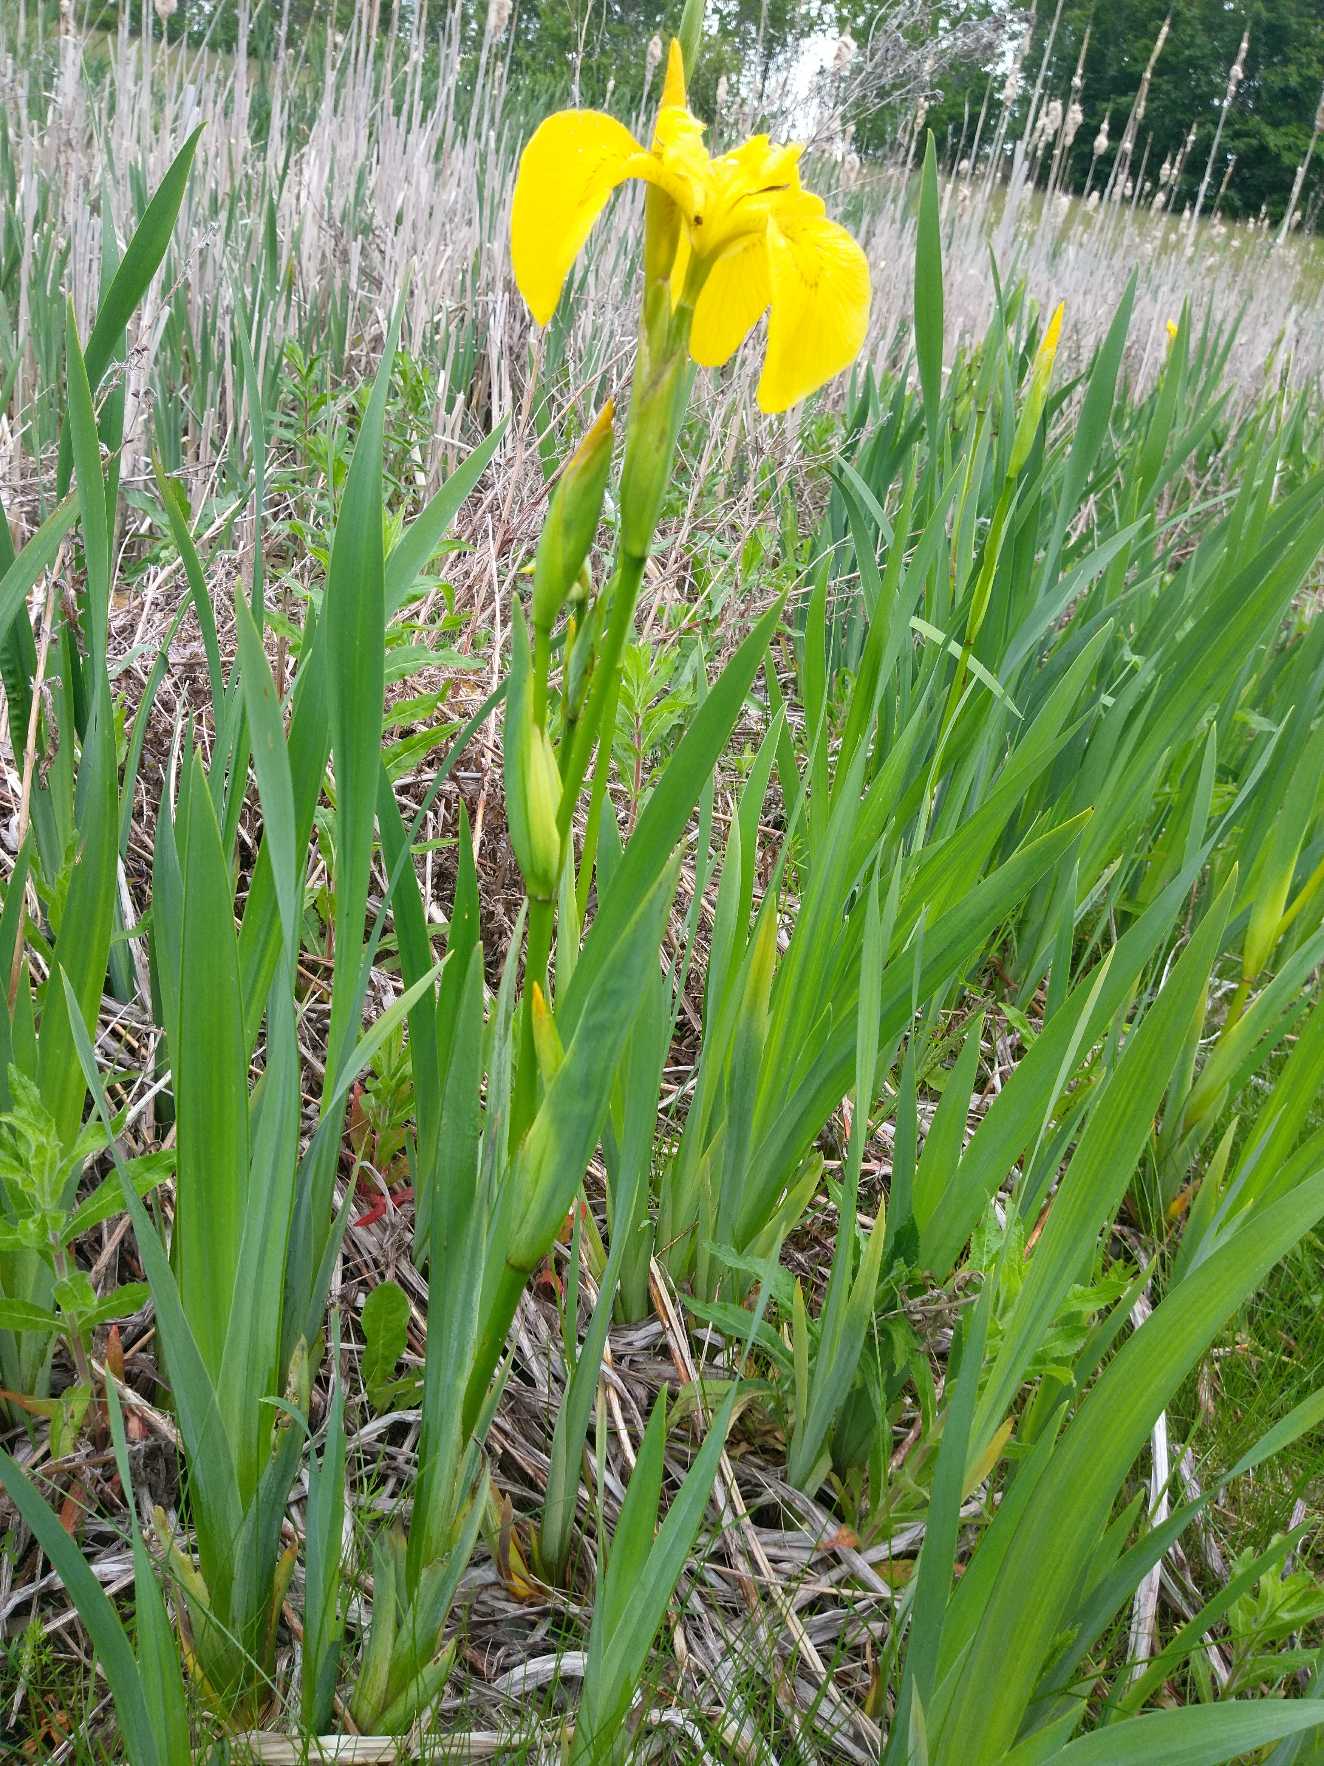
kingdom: Plantae
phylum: Tracheophyta
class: Liliopsida
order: Asparagales
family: Iridaceae
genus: Iris
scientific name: Iris pseudacorus
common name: Gul iris
